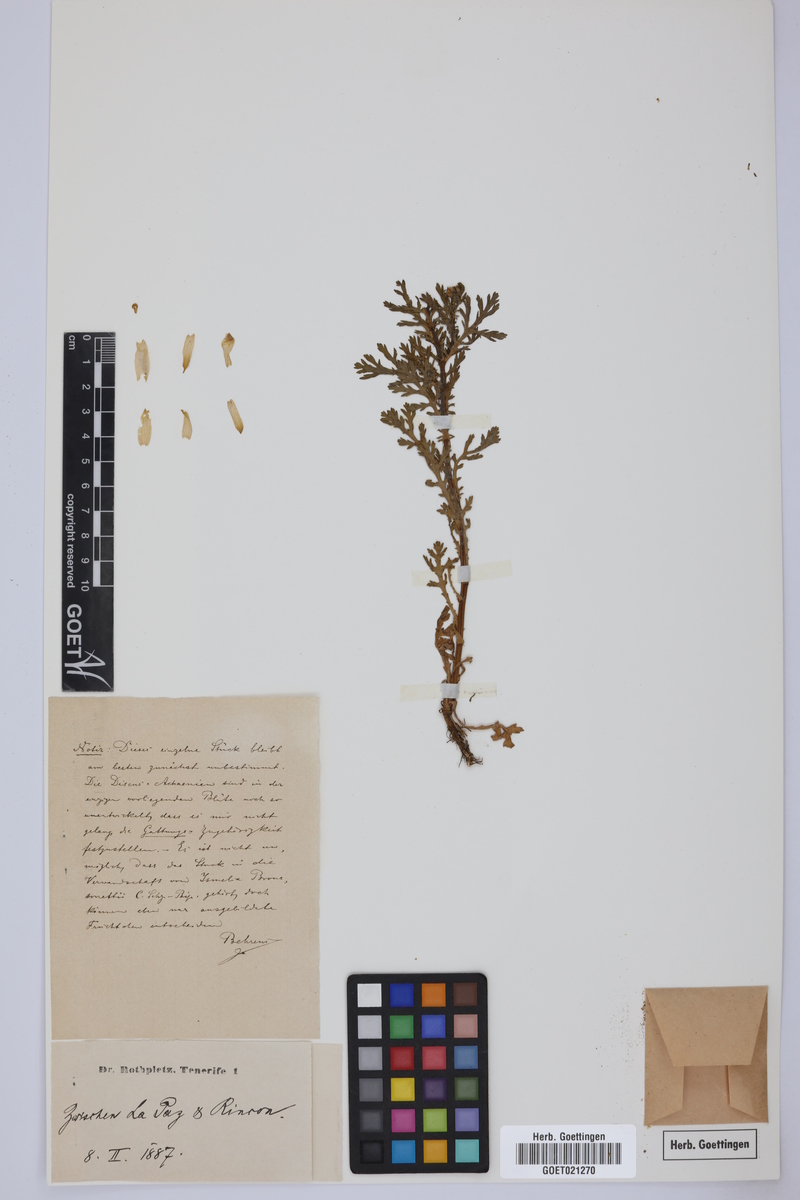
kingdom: Plantae
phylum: Tracheophyta
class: Magnoliopsida
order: Asterales
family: Asteraceae
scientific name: Asteraceae
